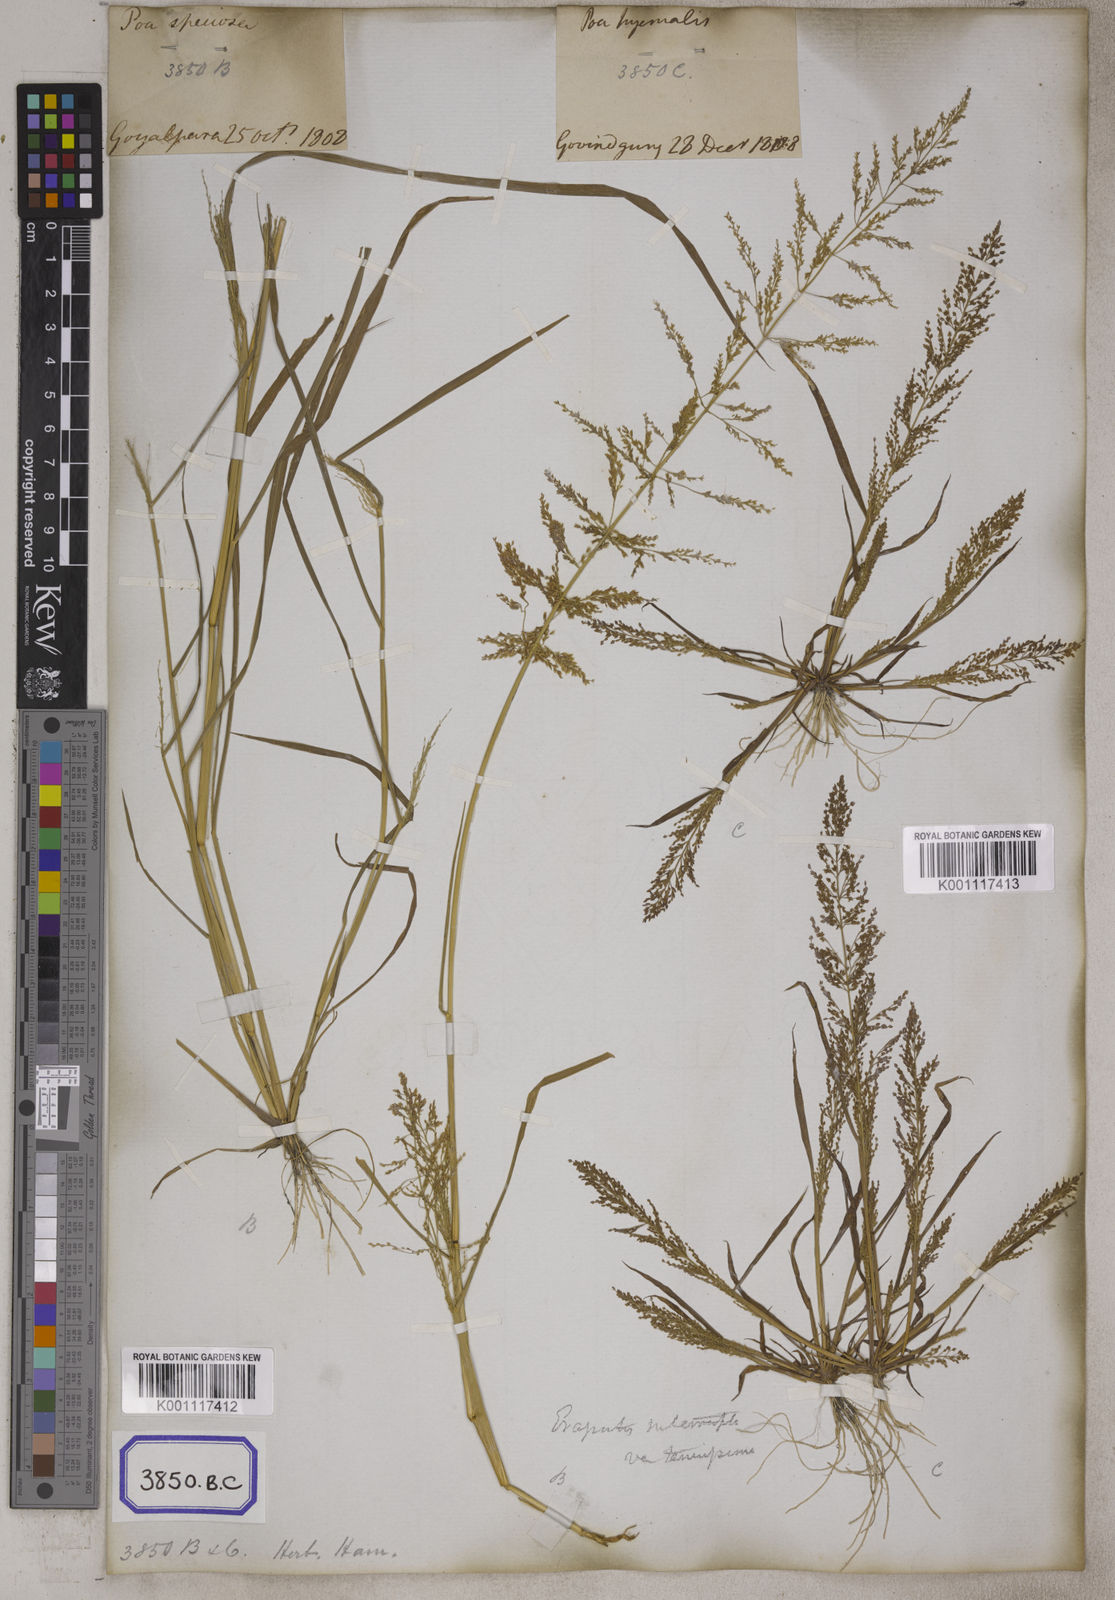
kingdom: Plantae
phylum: Tracheophyta
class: Liliopsida
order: Poales
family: Poaceae
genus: Eragrostis
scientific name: Eragrostis
